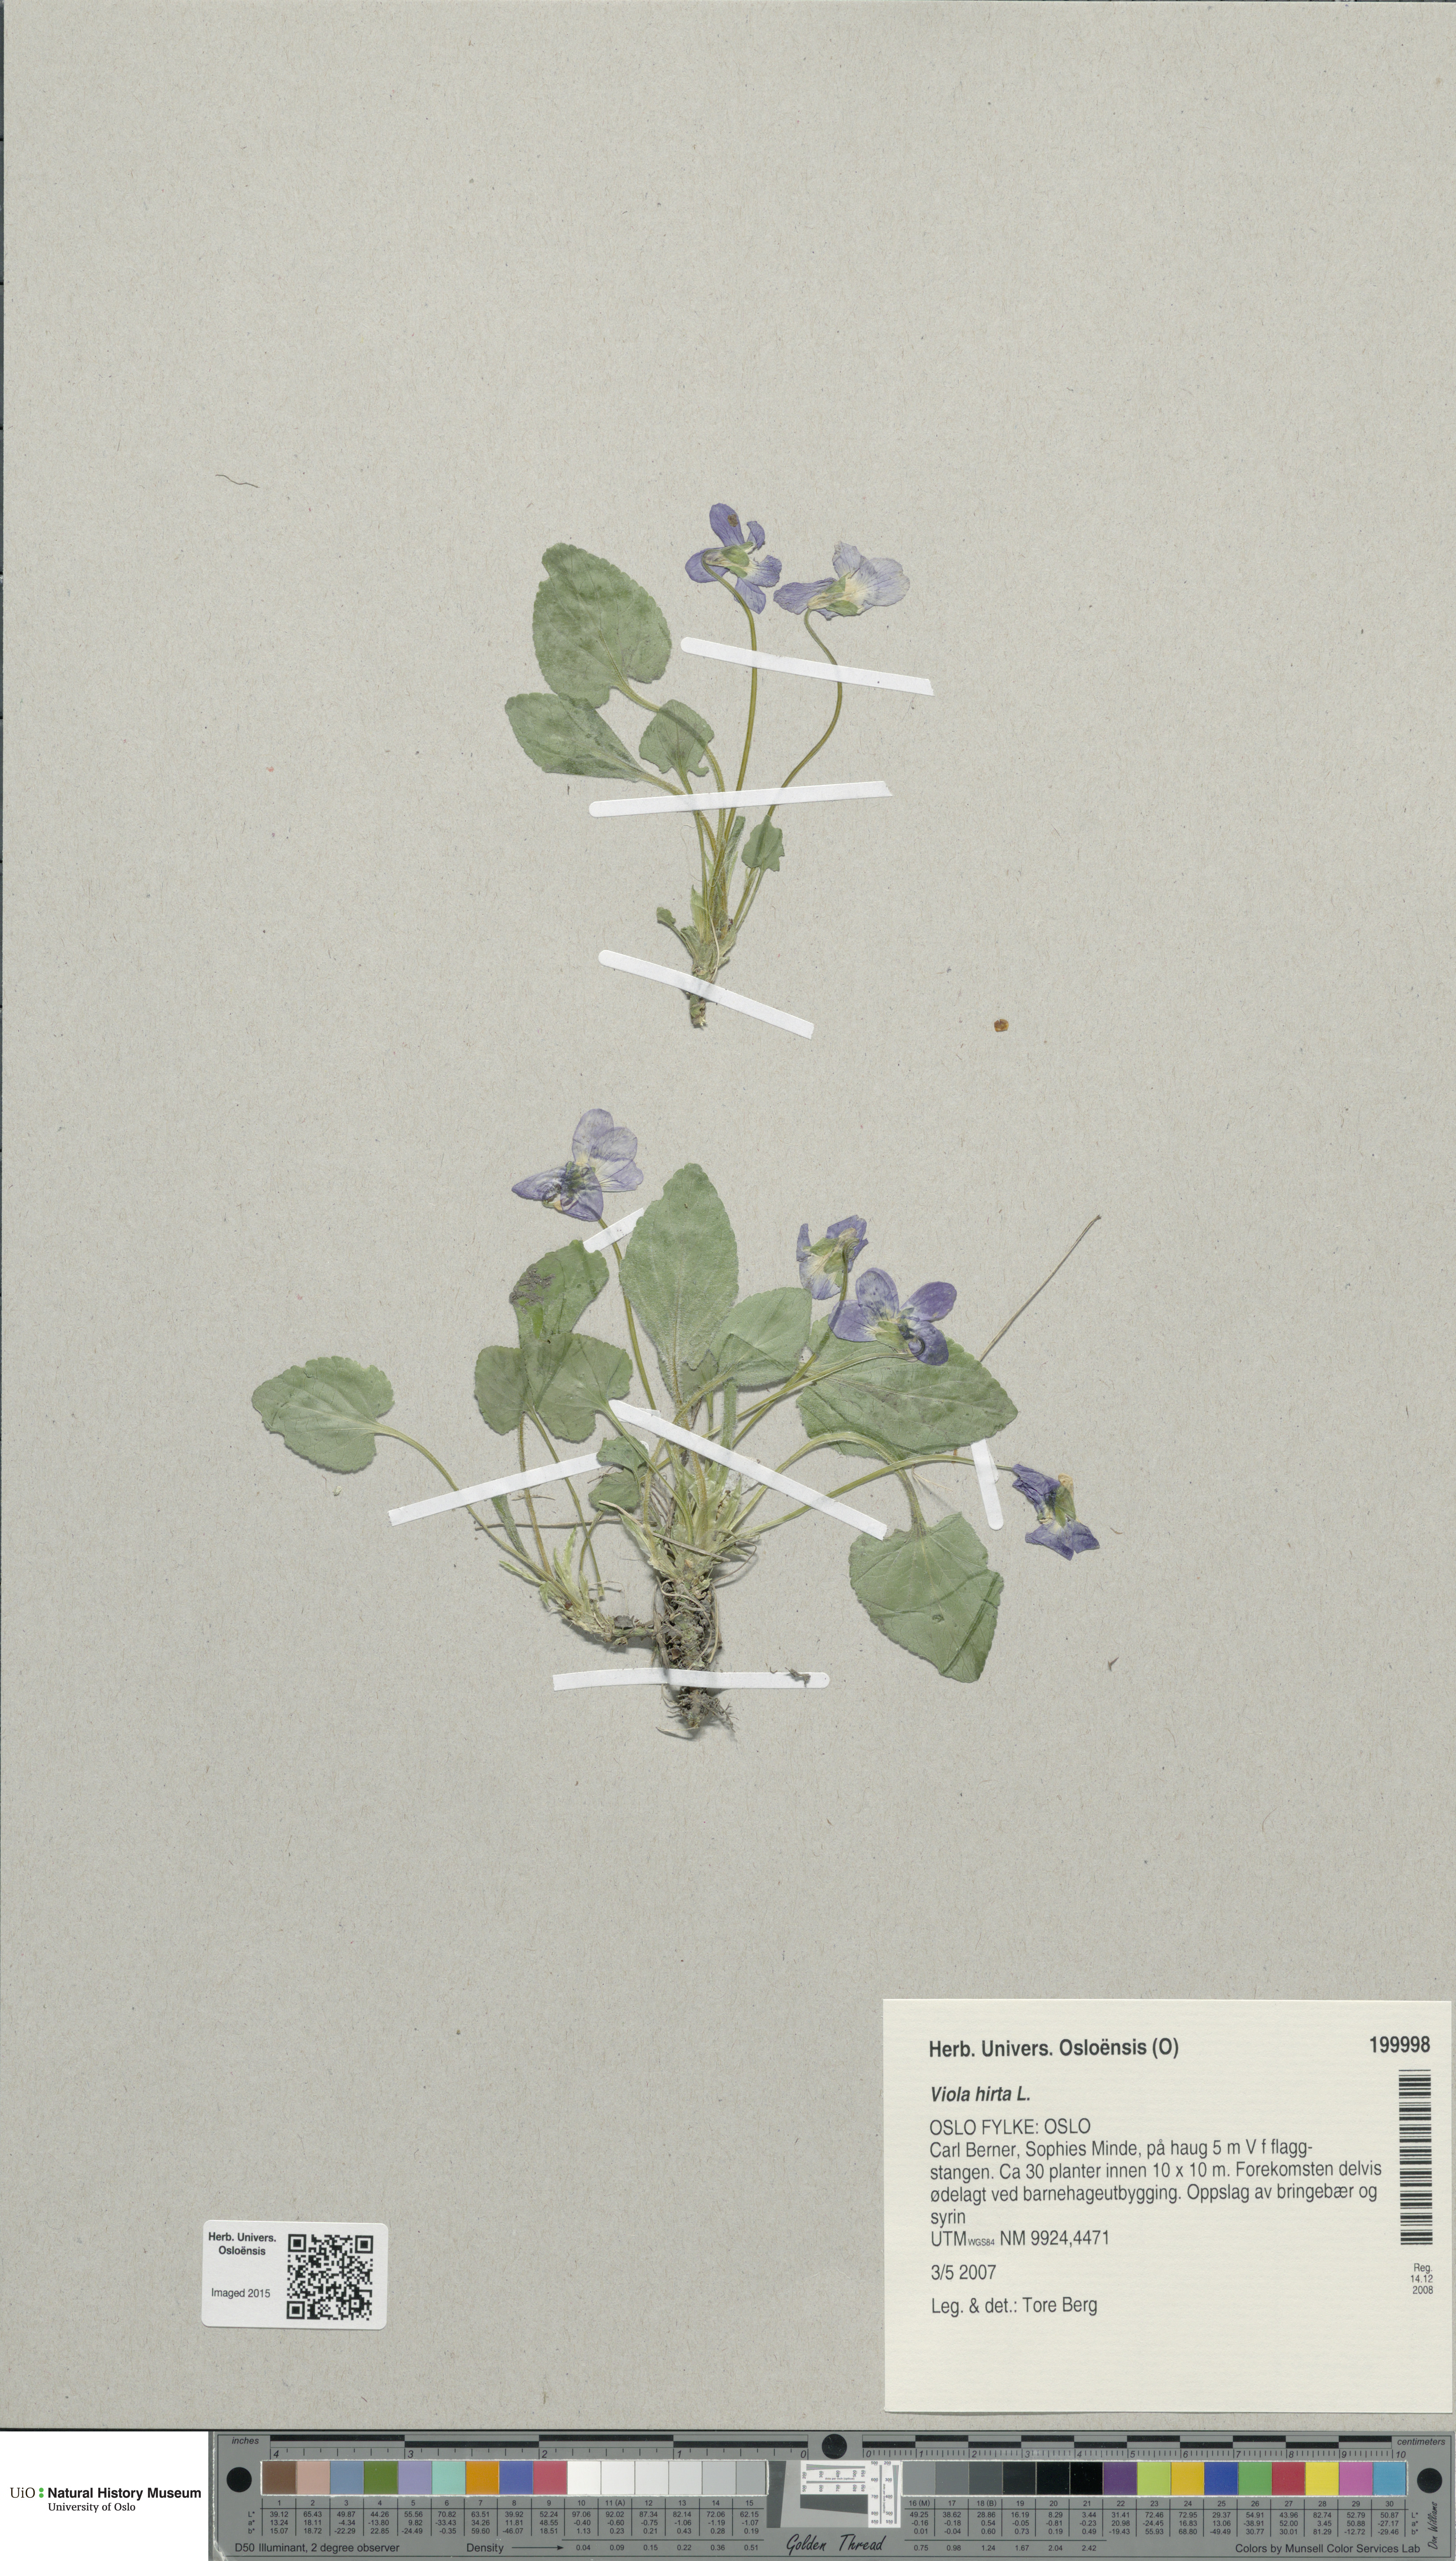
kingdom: Plantae
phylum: Tracheophyta
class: Magnoliopsida
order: Malpighiales
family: Violaceae
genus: Viola
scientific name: Viola hirta
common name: Hairy violet
